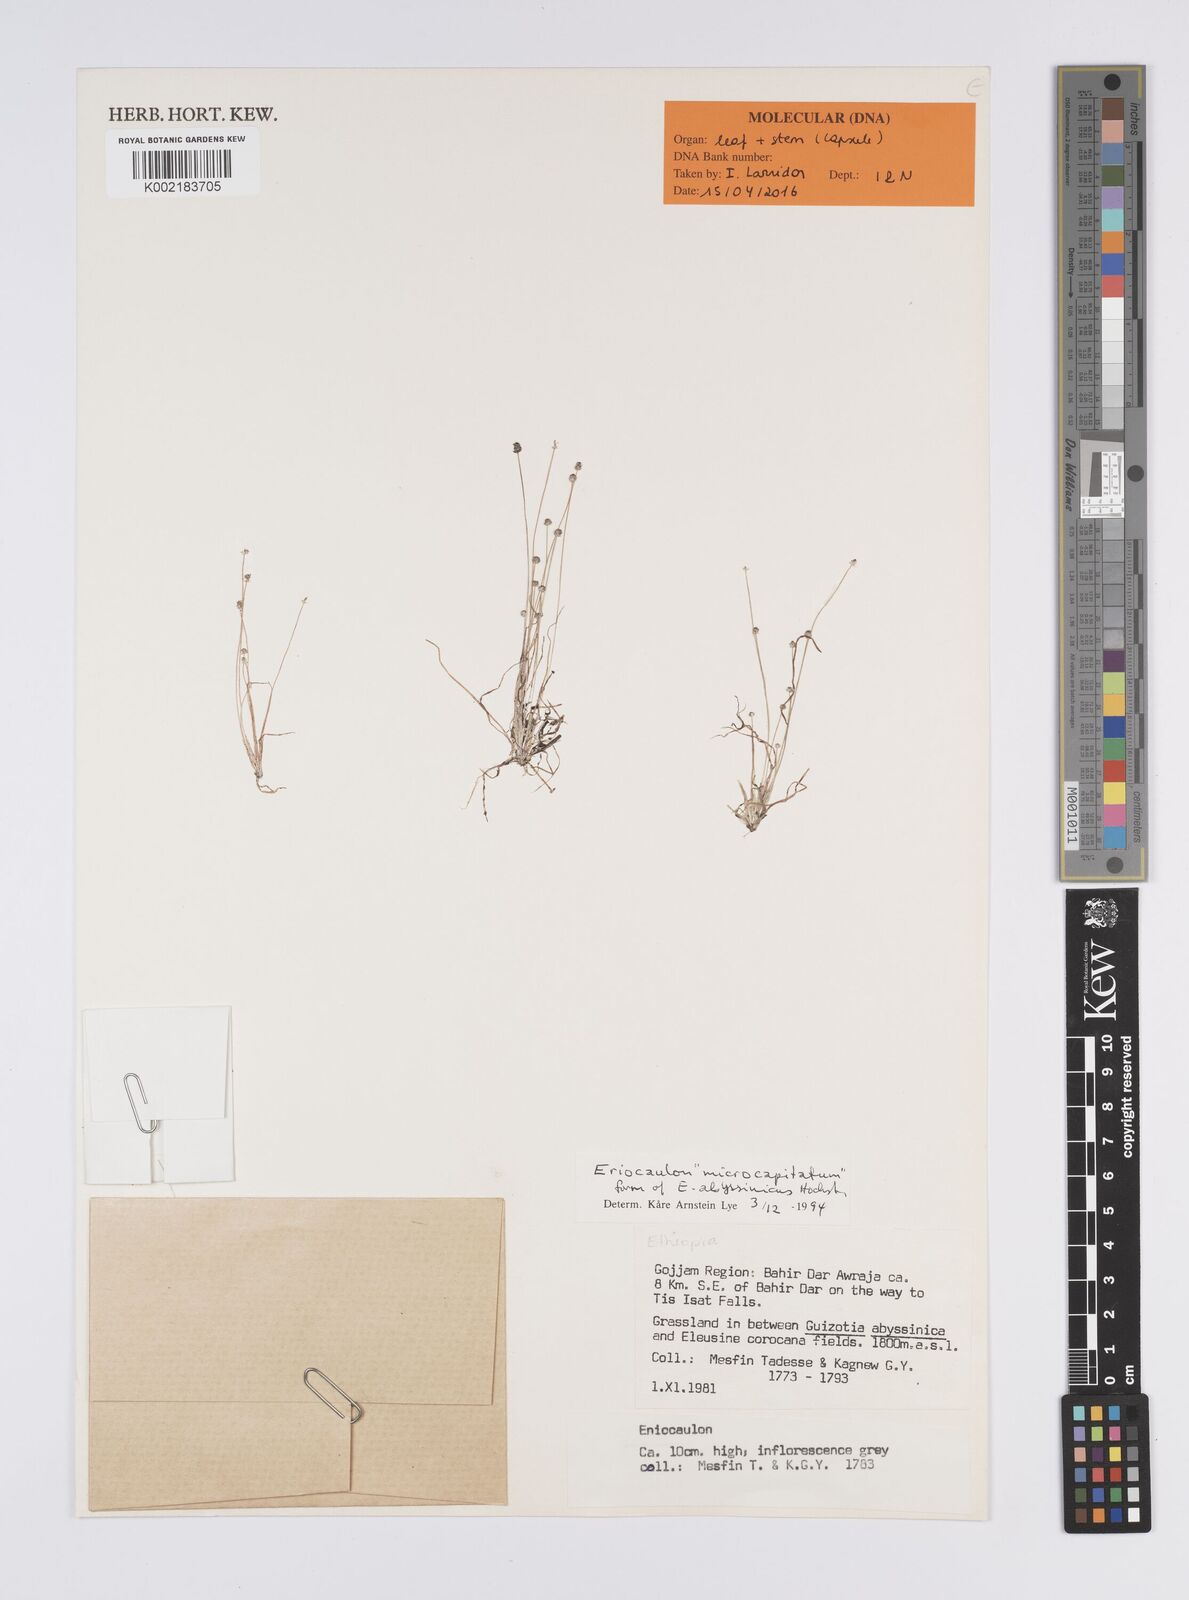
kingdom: Plantae
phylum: Tracheophyta
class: Liliopsida
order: Poales
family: Eriocaulaceae
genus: Eriocaulon
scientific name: Eriocaulon abyssinicum
